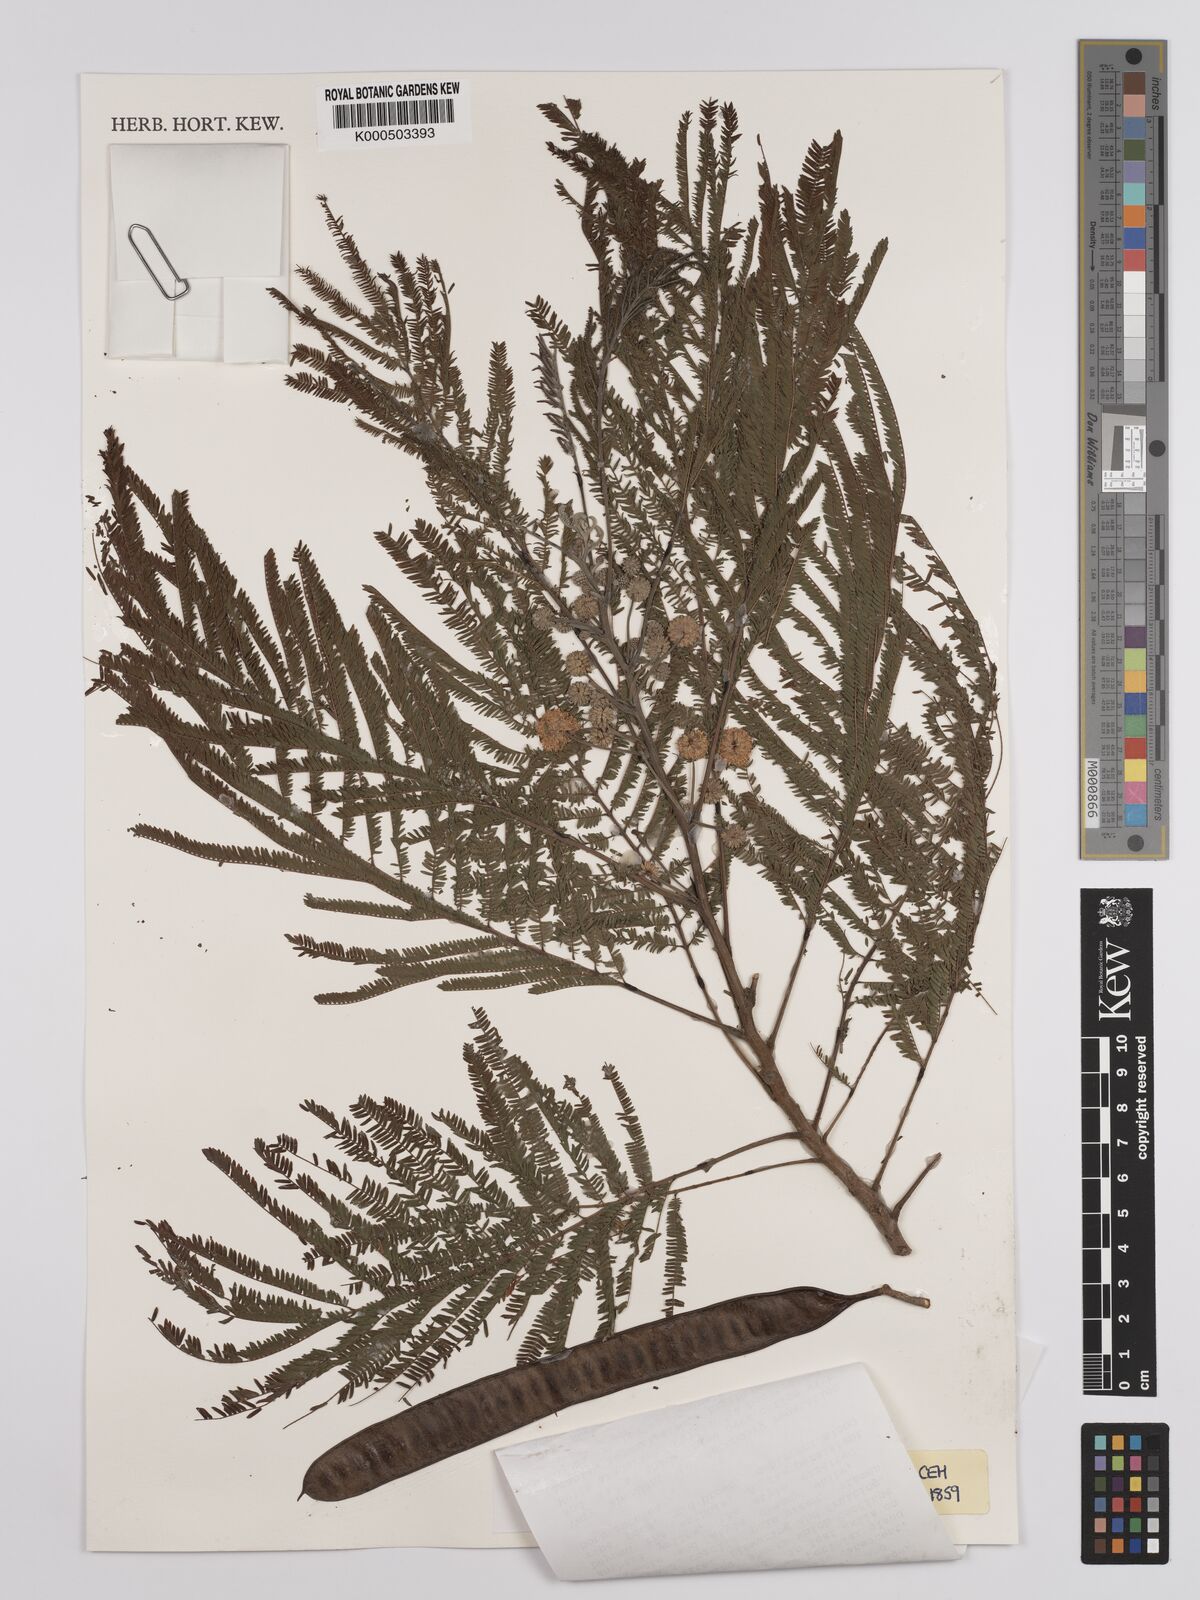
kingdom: Plantae
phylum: Tracheophyta
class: Magnoliopsida
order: Fabales
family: Fabaceae
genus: Leucaena
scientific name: Leucaena pulverulenta
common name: Great leadtree
